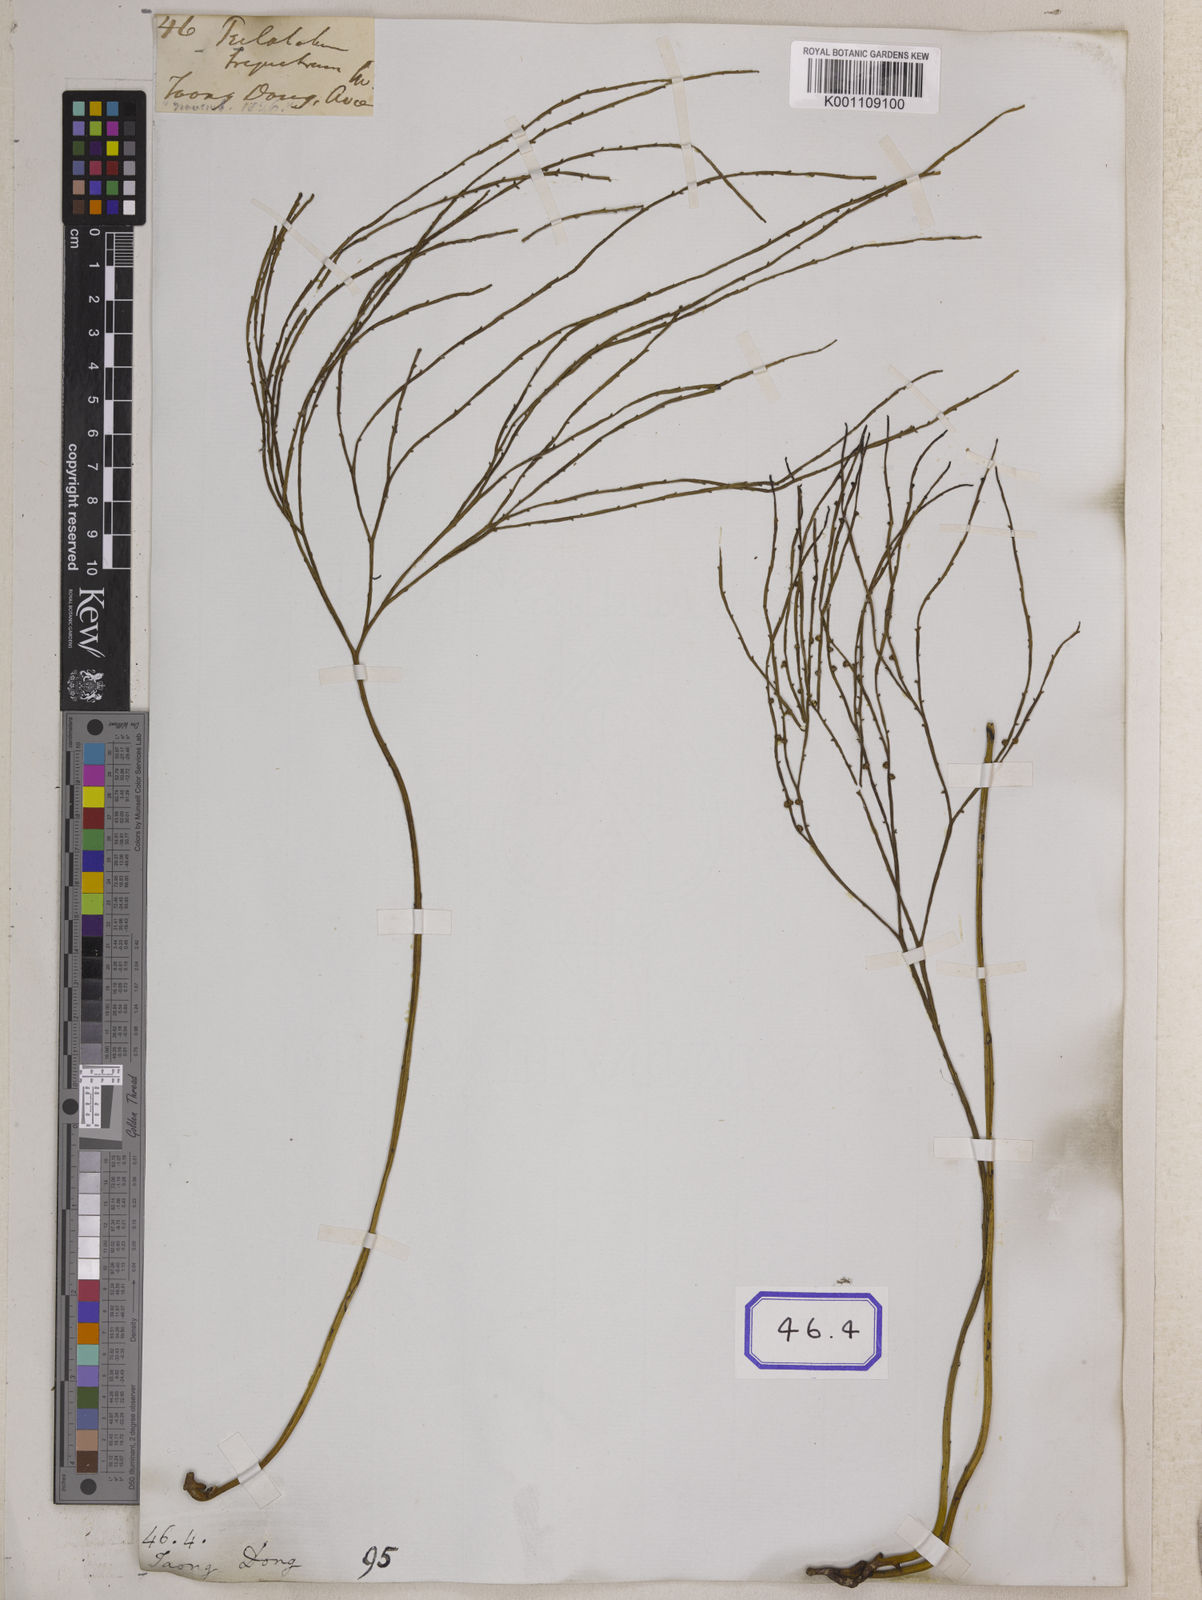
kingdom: Plantae
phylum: Tracheophyta
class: Polypodiopsida
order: Psilotales
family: Psilotaceae
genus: Psilotum
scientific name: Psilotum
